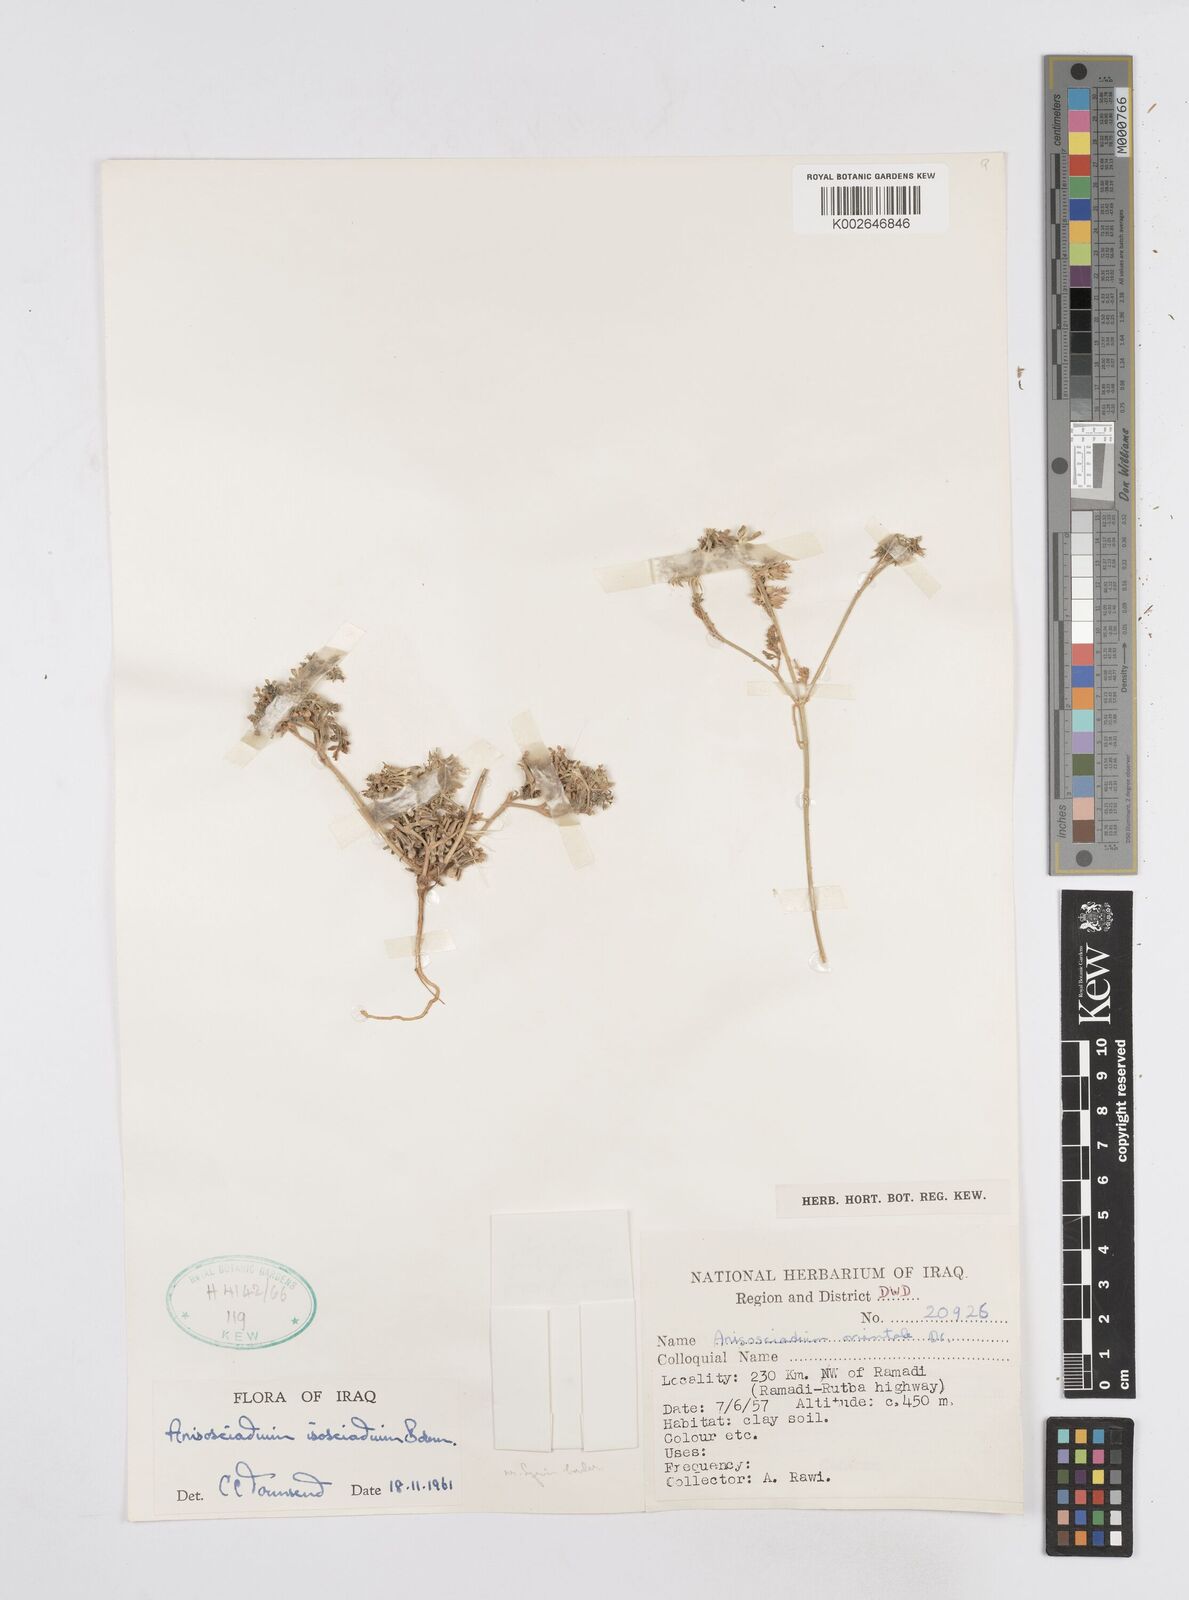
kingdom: Plantae
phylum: Tracheophyta
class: Magnoliopsida
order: Apiales
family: Apiaceae
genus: Anisosciadium
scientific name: Anisosciadium isosciadium
